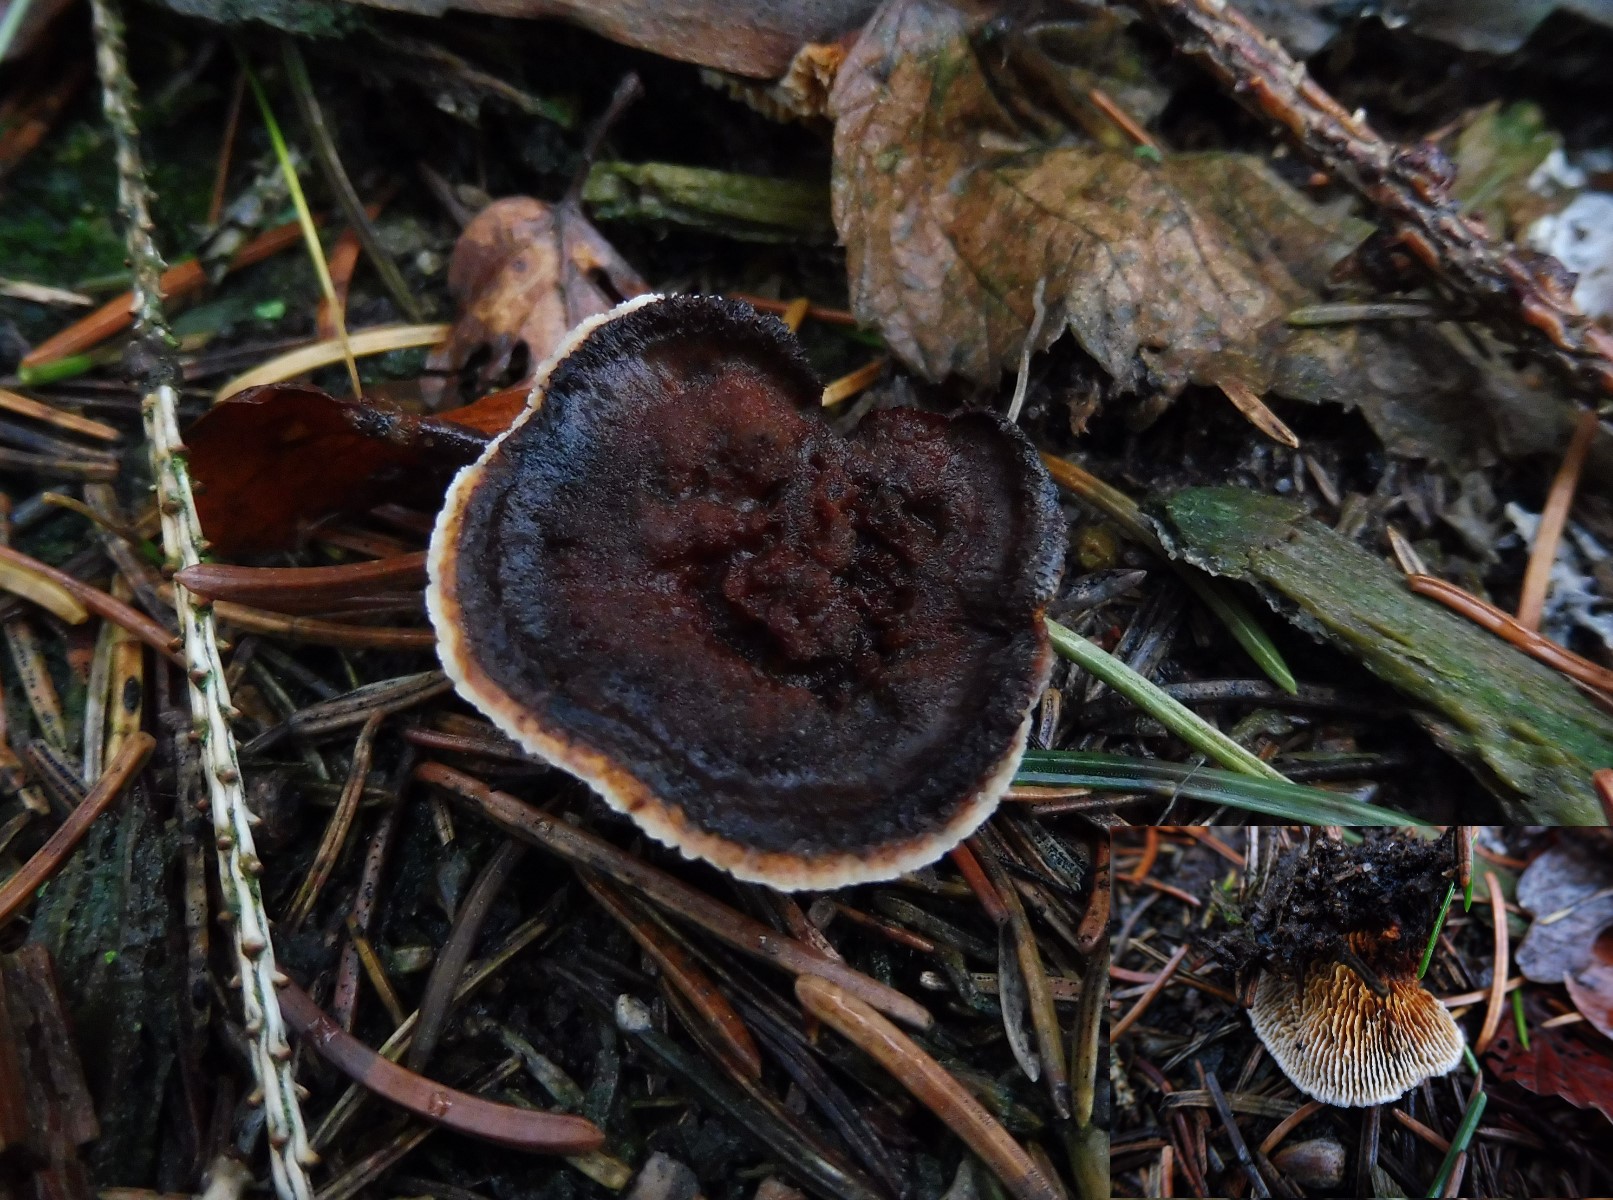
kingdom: Fungi
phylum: Basidiomycota
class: Agaricomycetes
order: Gloeophyllales
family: Gloeophyllaceae
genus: Gloeophyllum
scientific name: Gloeophyllum sepiarium
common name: fyrre-korkhat
